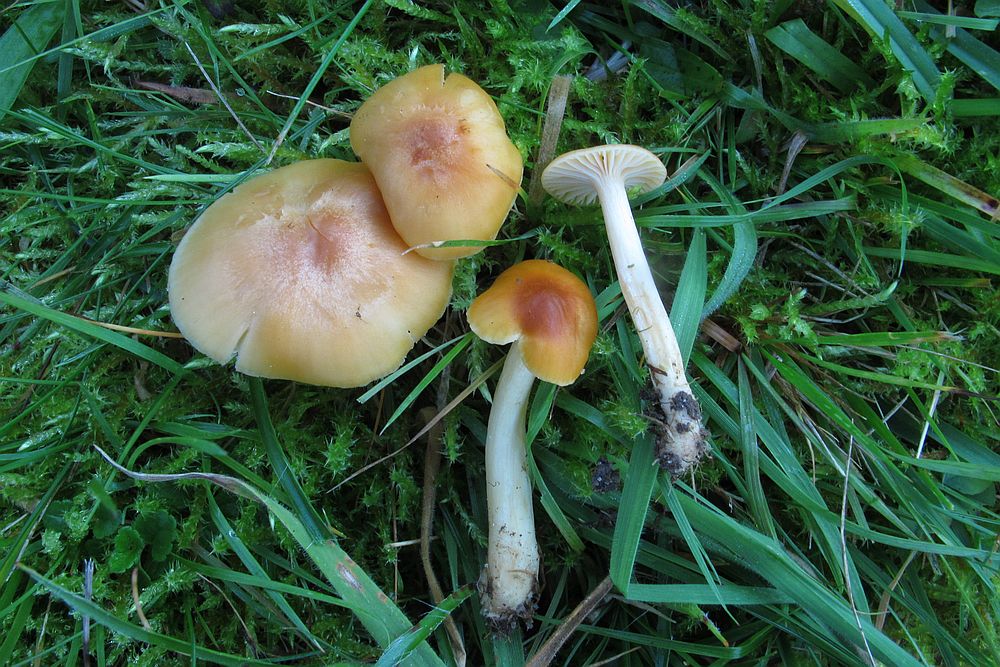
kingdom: Fungi
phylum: Basidiomycota
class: Agaricomycetes
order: Agaricales
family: Hygrophoraceae
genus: Cuphophyllus
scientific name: Cuphophyllus pratensis
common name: eng-vokshat
